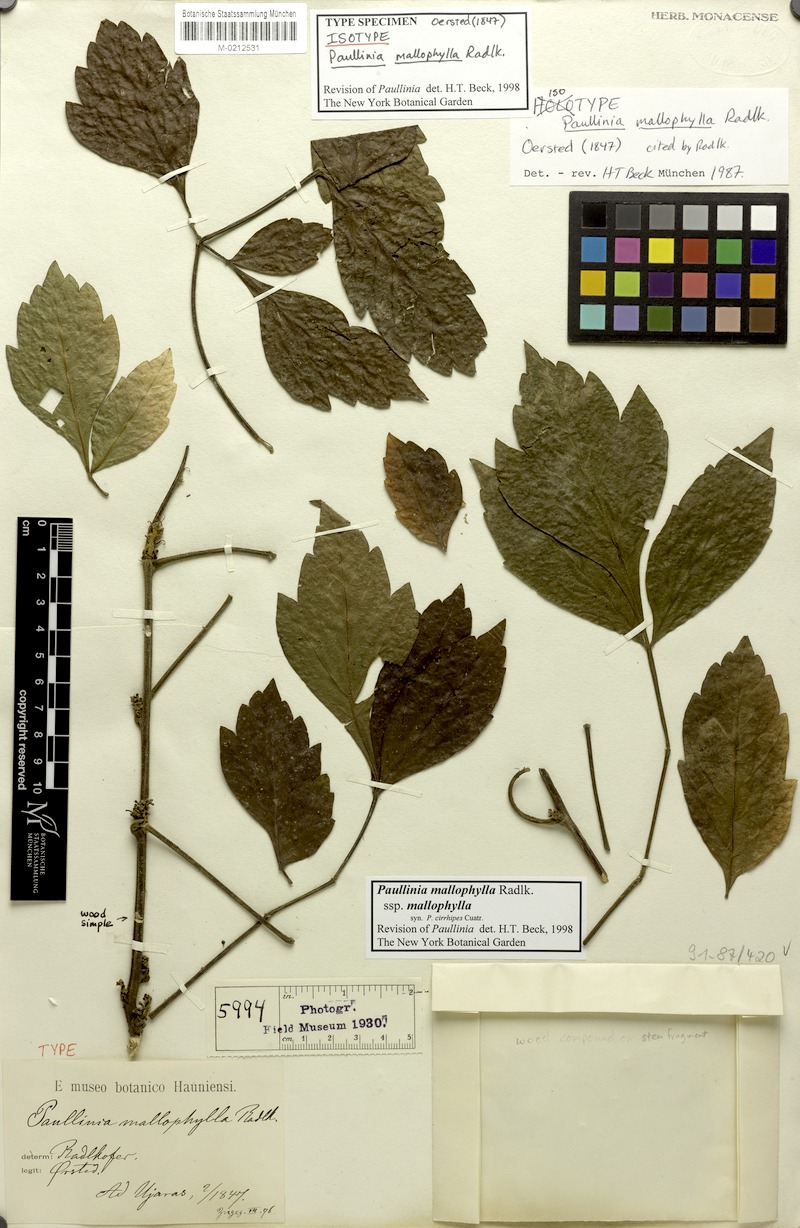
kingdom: Plantae
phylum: Tracheophyta
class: Magnoliopsida
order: Sapindales
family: Sapindaceae
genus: Paullinia
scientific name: Paullinia mallophylla
